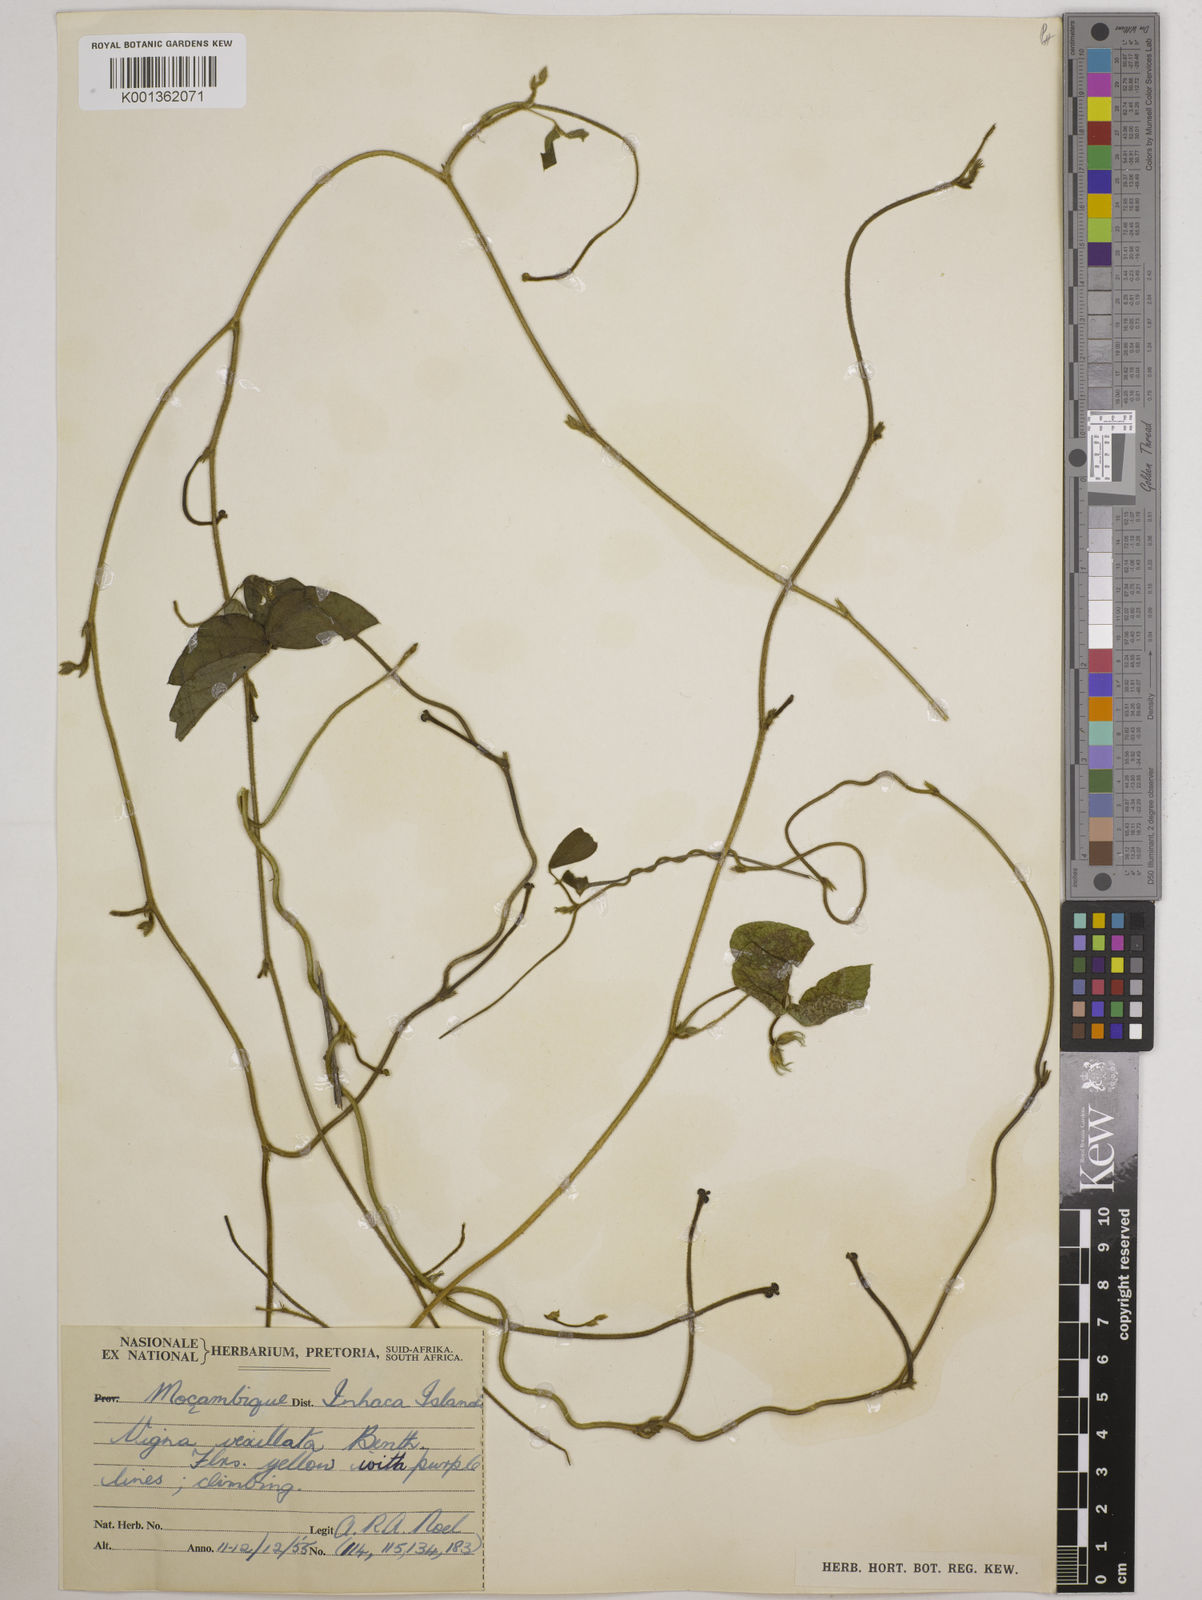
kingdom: Plantae
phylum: Tracheophyta
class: Magnoliopsida
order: Fabales
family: Fabaceae
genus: Vigna
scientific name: Vigna vexillata
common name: Zombi pea
